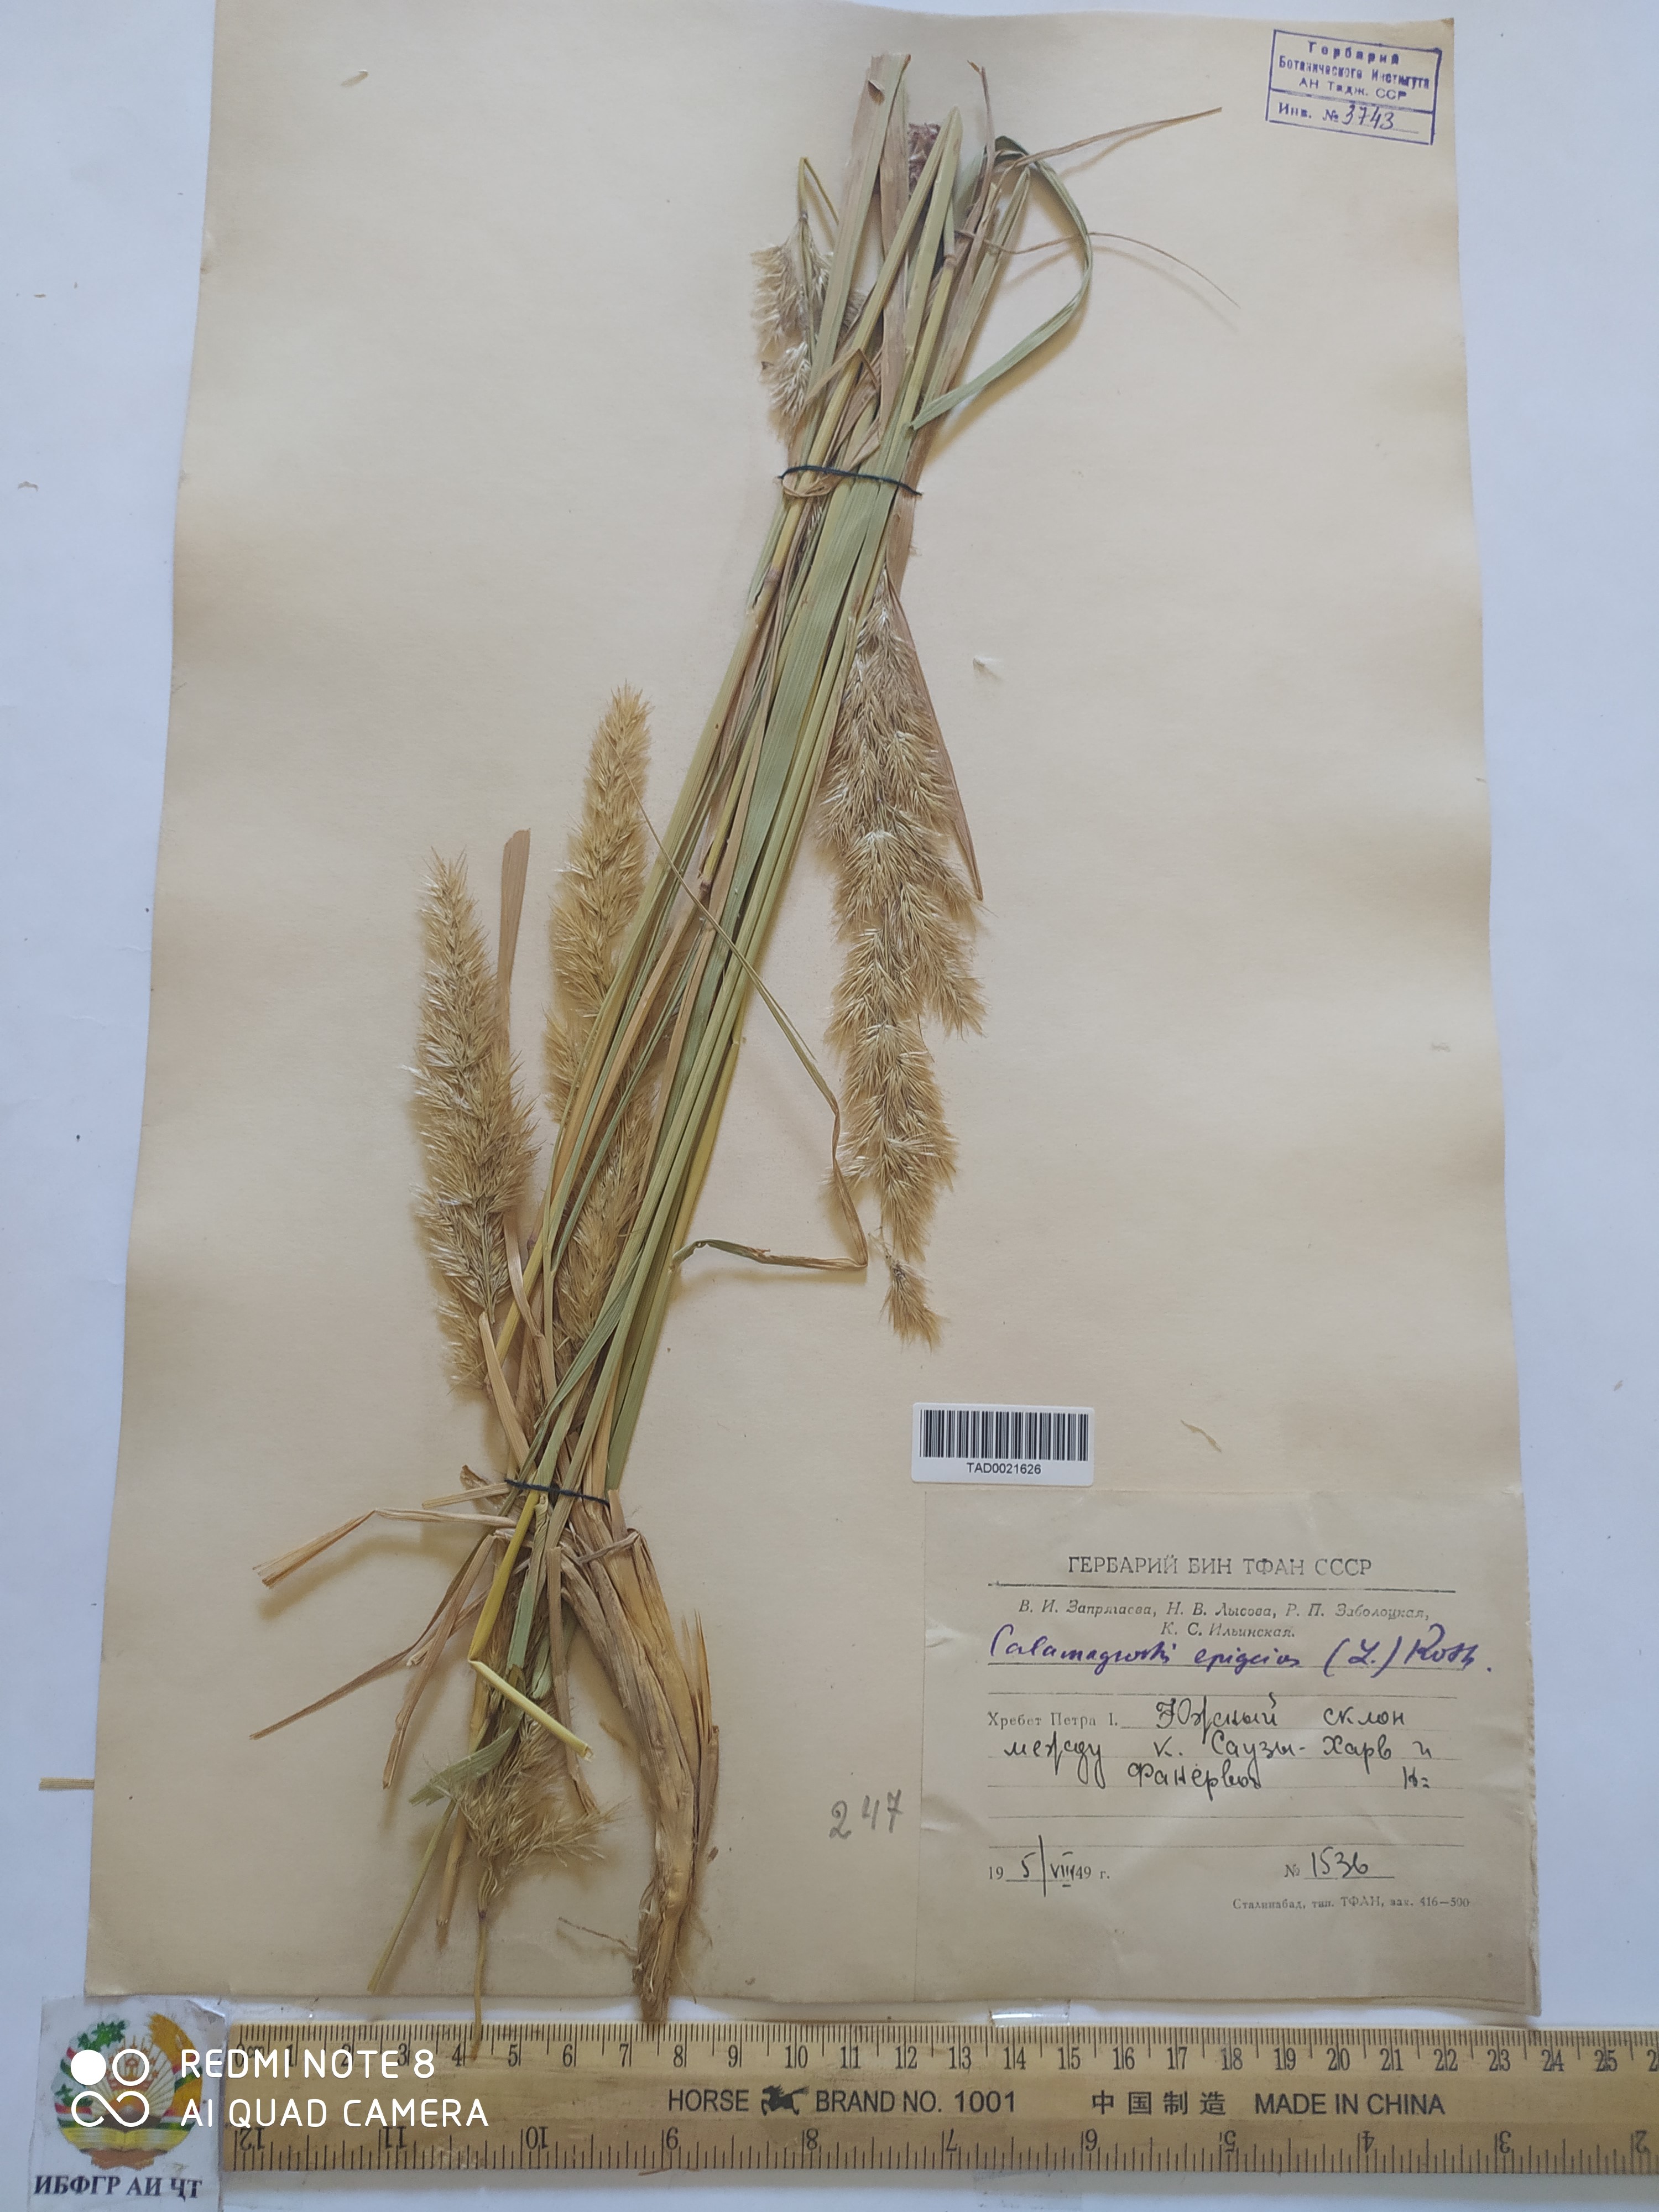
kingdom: Plantae
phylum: Tracheophyta
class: Liliopsida
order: Poales
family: Poaceae
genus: Calamagrostis
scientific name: Calamagrostis epigejos
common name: Wood small-reed
